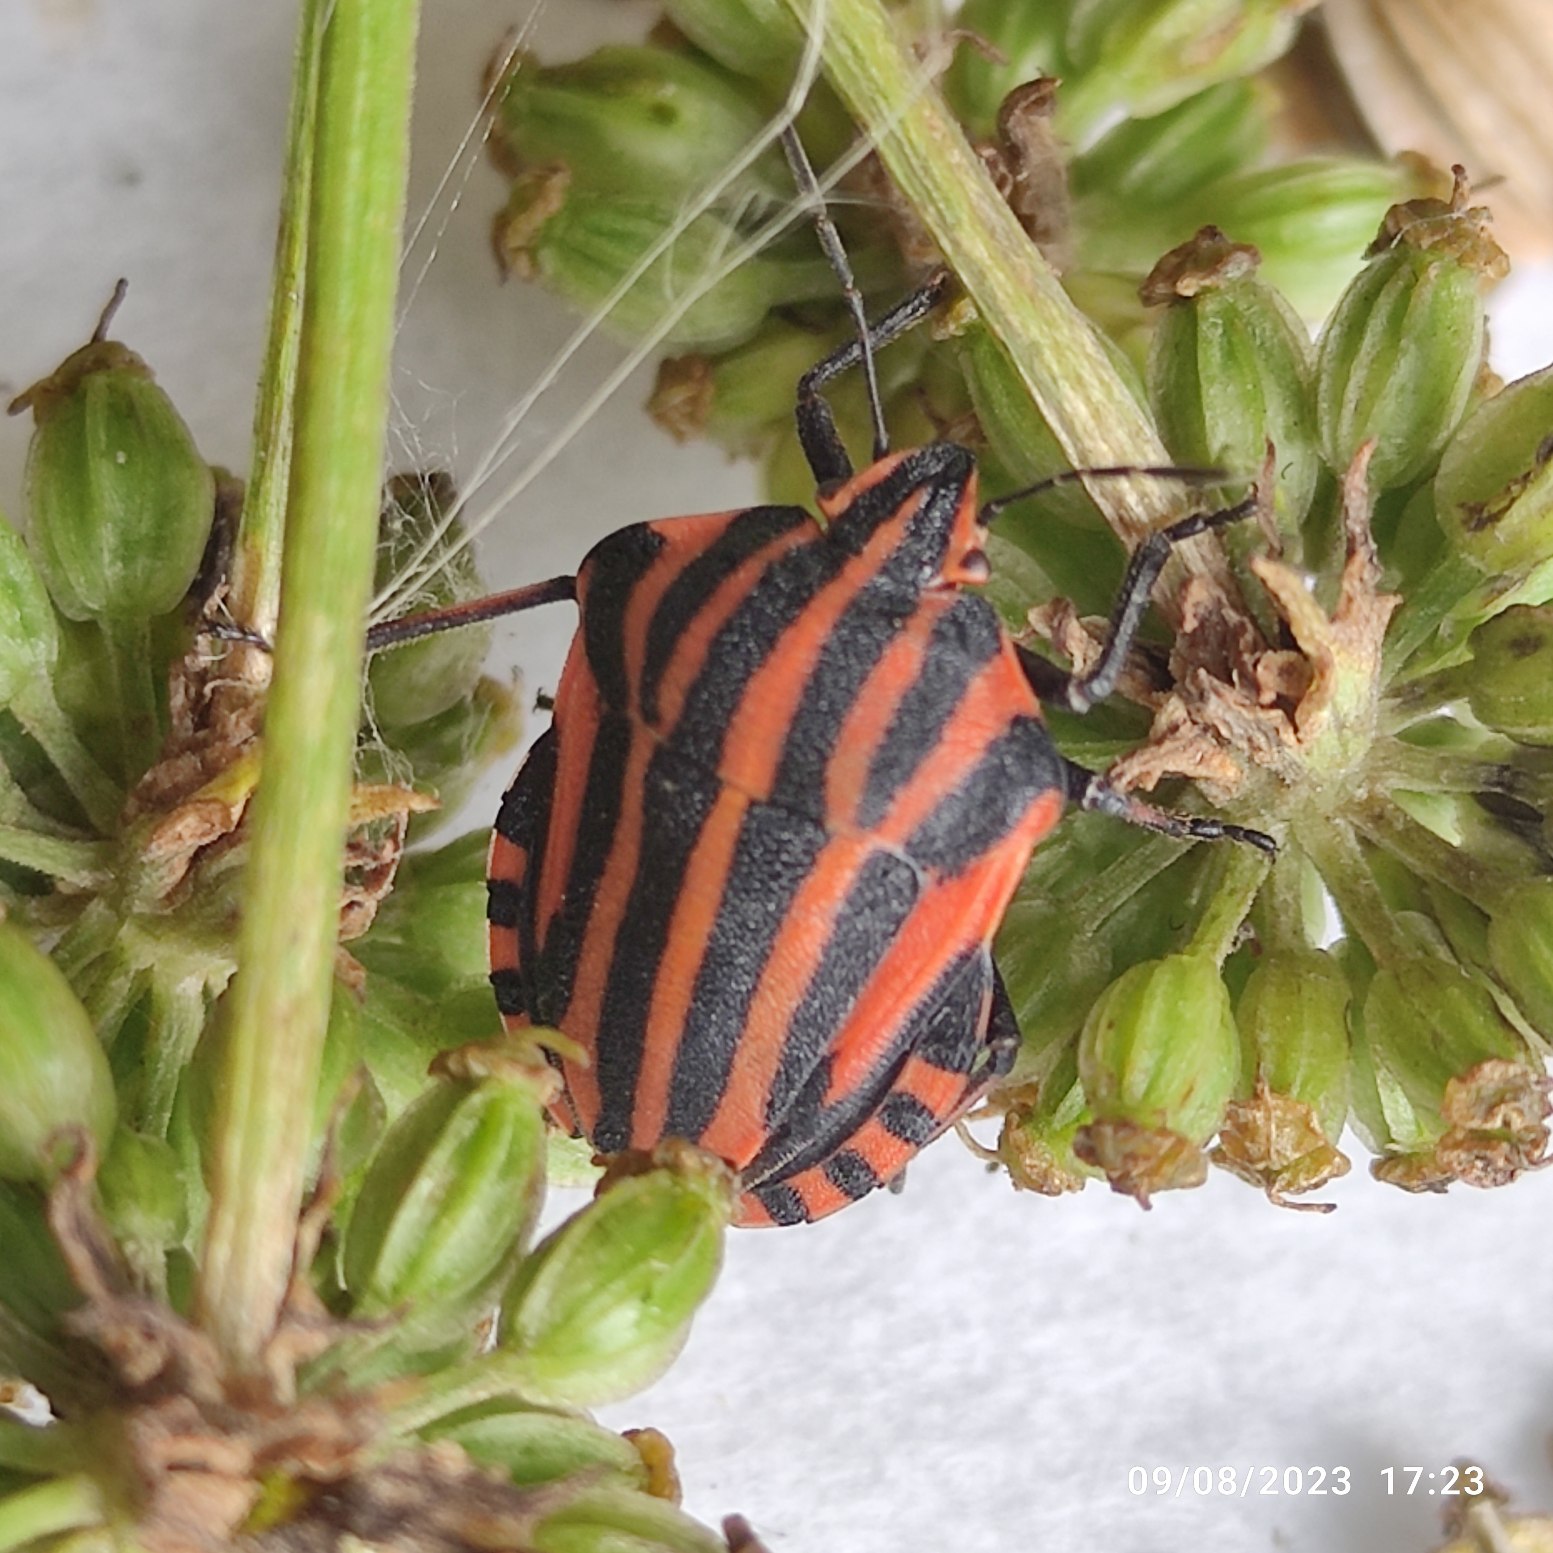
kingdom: Animalia
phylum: Arthropoda
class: Insecta
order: Hemiptera
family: Pentatomidae
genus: Graphosoma
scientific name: Graphosoma italicum
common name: Stribetæge
